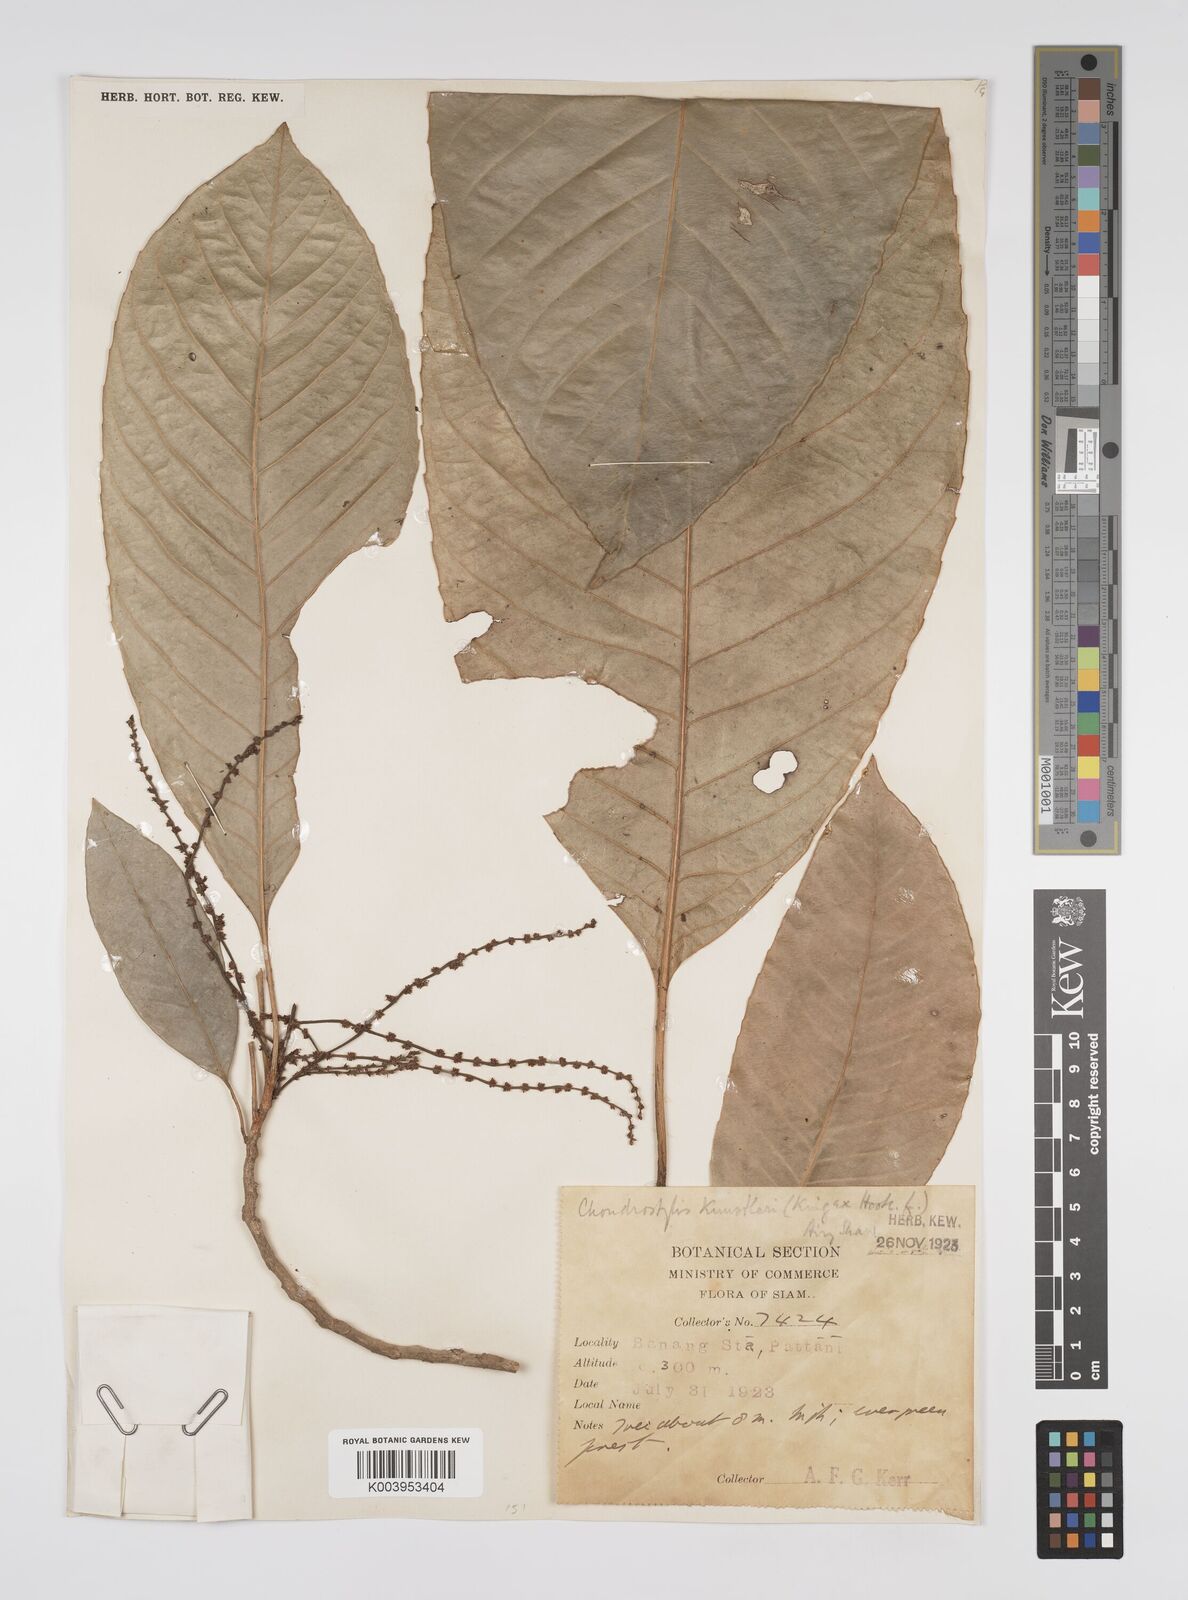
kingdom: Plantae
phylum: Tracheophyta
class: Magnoliopsida
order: Malpighiales
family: Euphorbiaceae
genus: Chondrostylis
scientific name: Chondrostylis kunstleri
